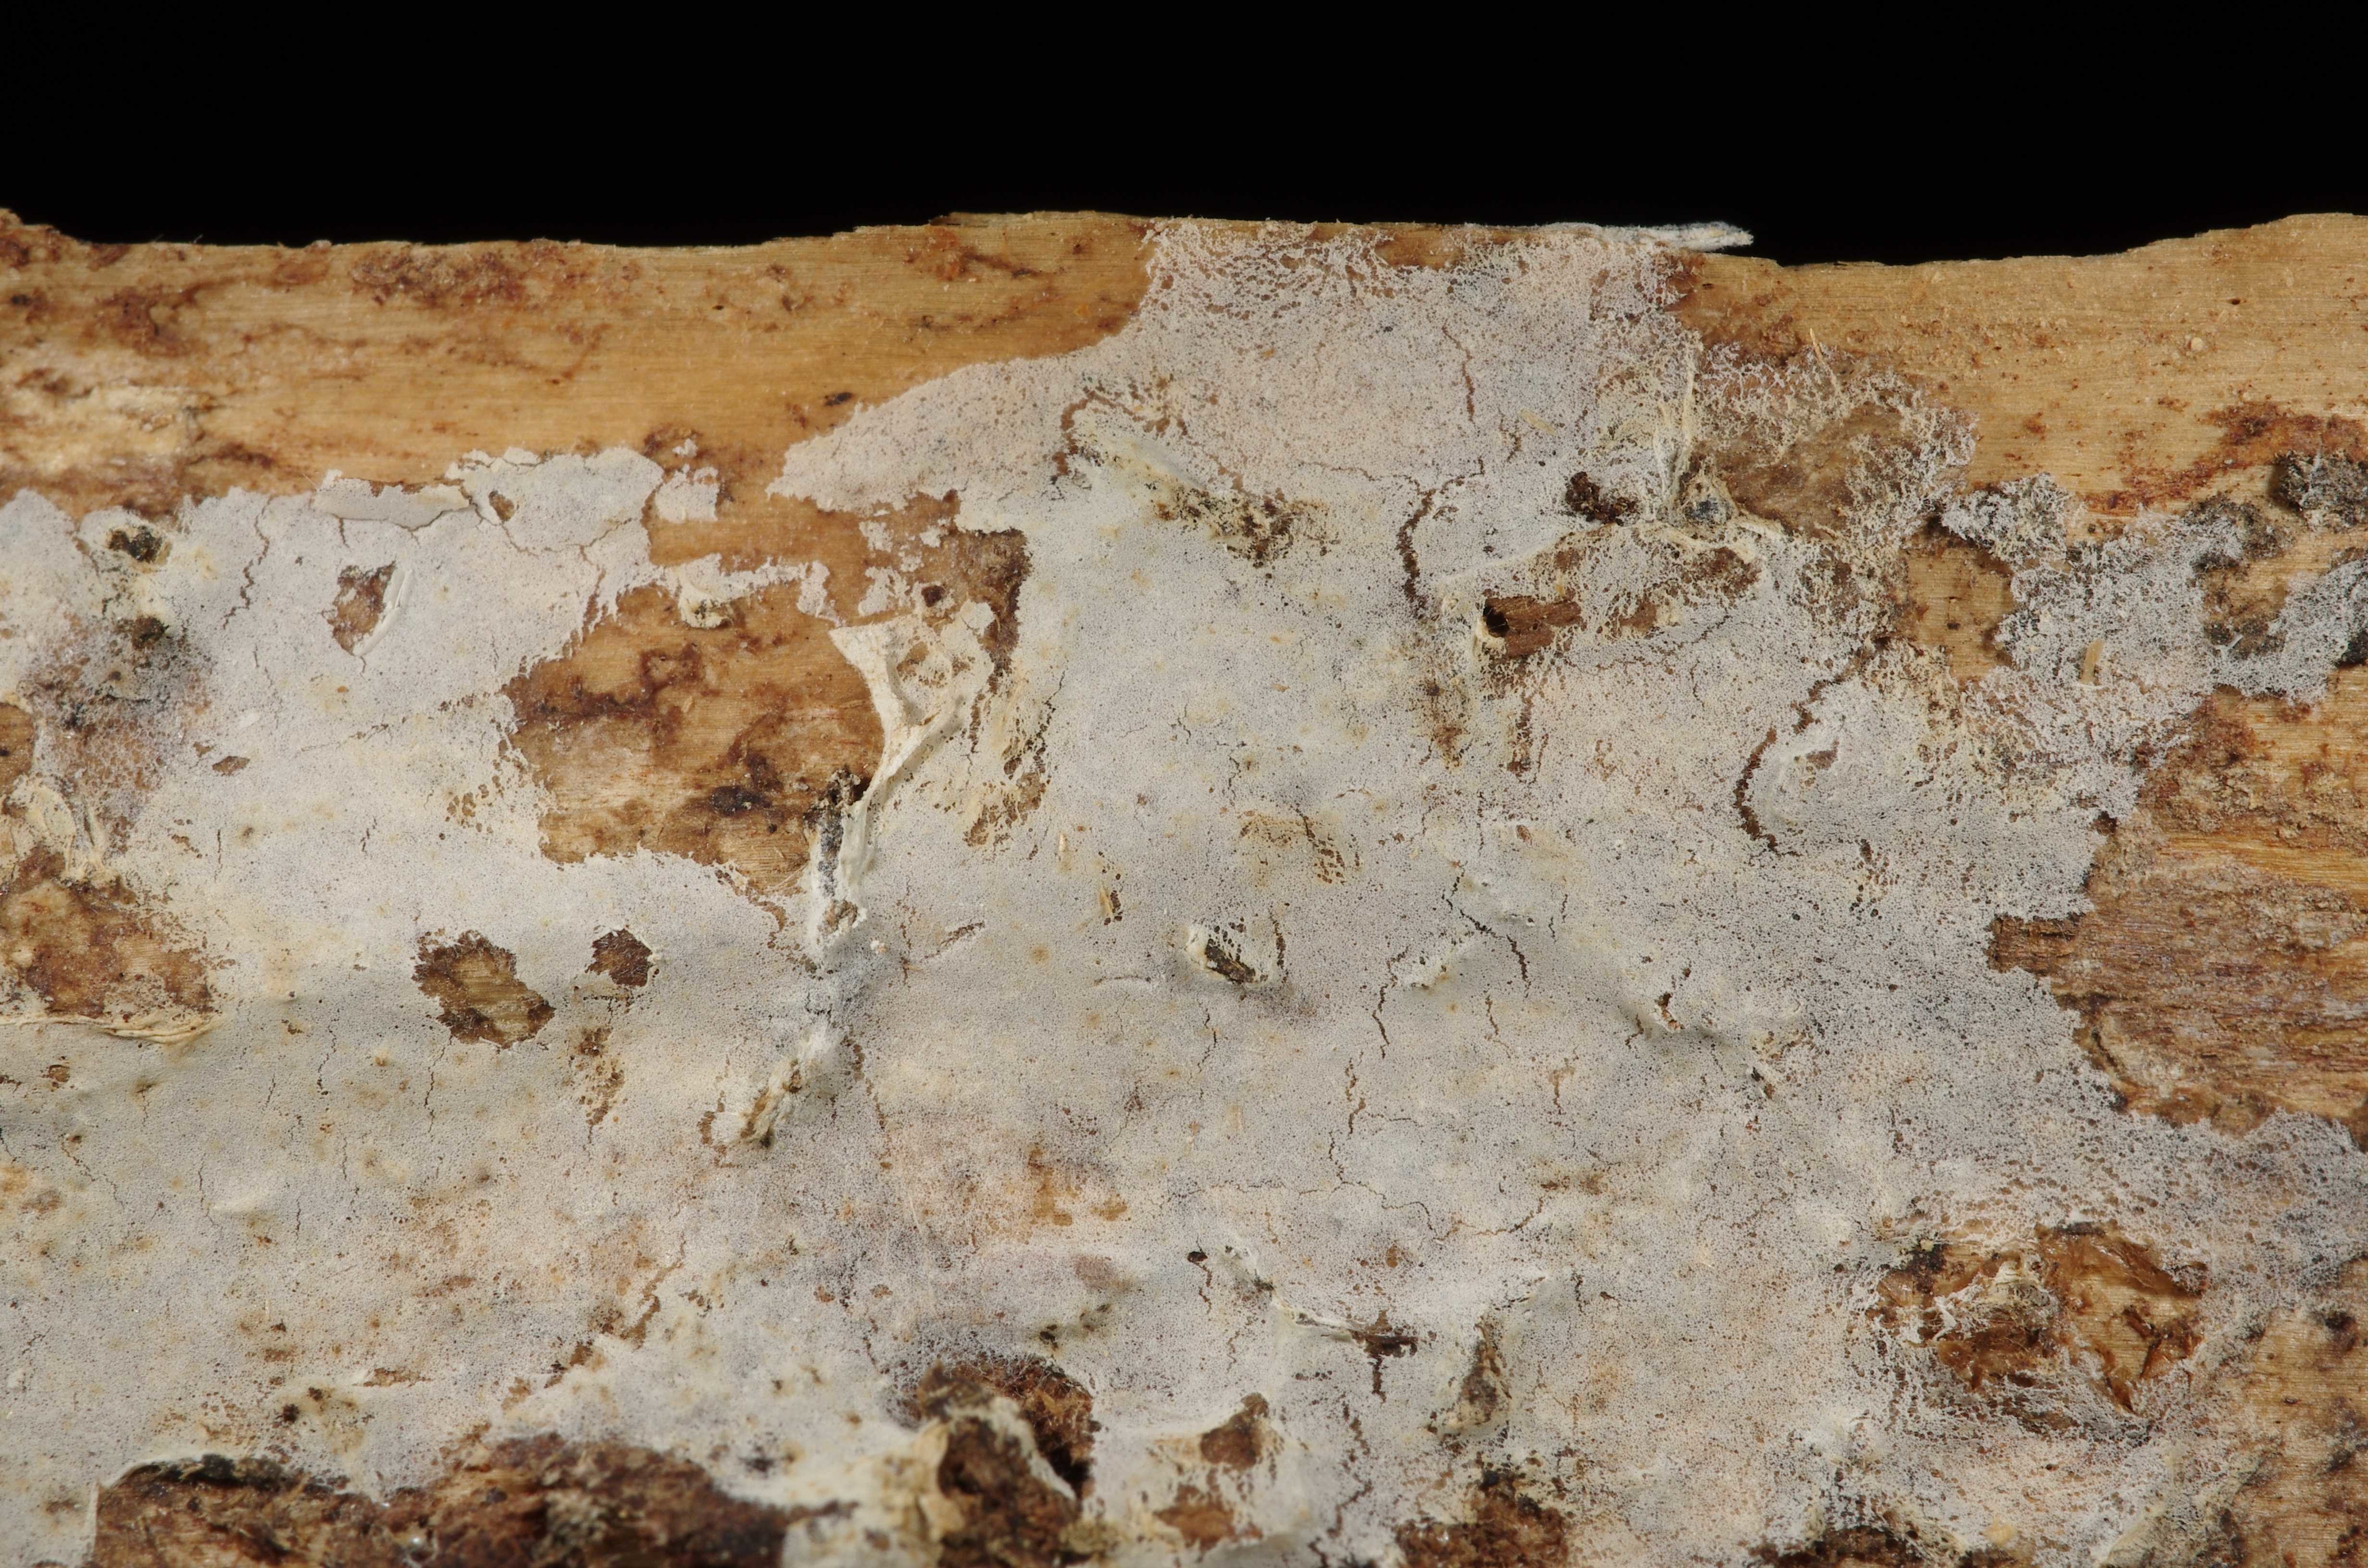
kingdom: Fungi
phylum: Basidiomycota
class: Agaricomycetes
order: Atheliales
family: Atheliaceae
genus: Athelia
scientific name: Athelia epiphylla
